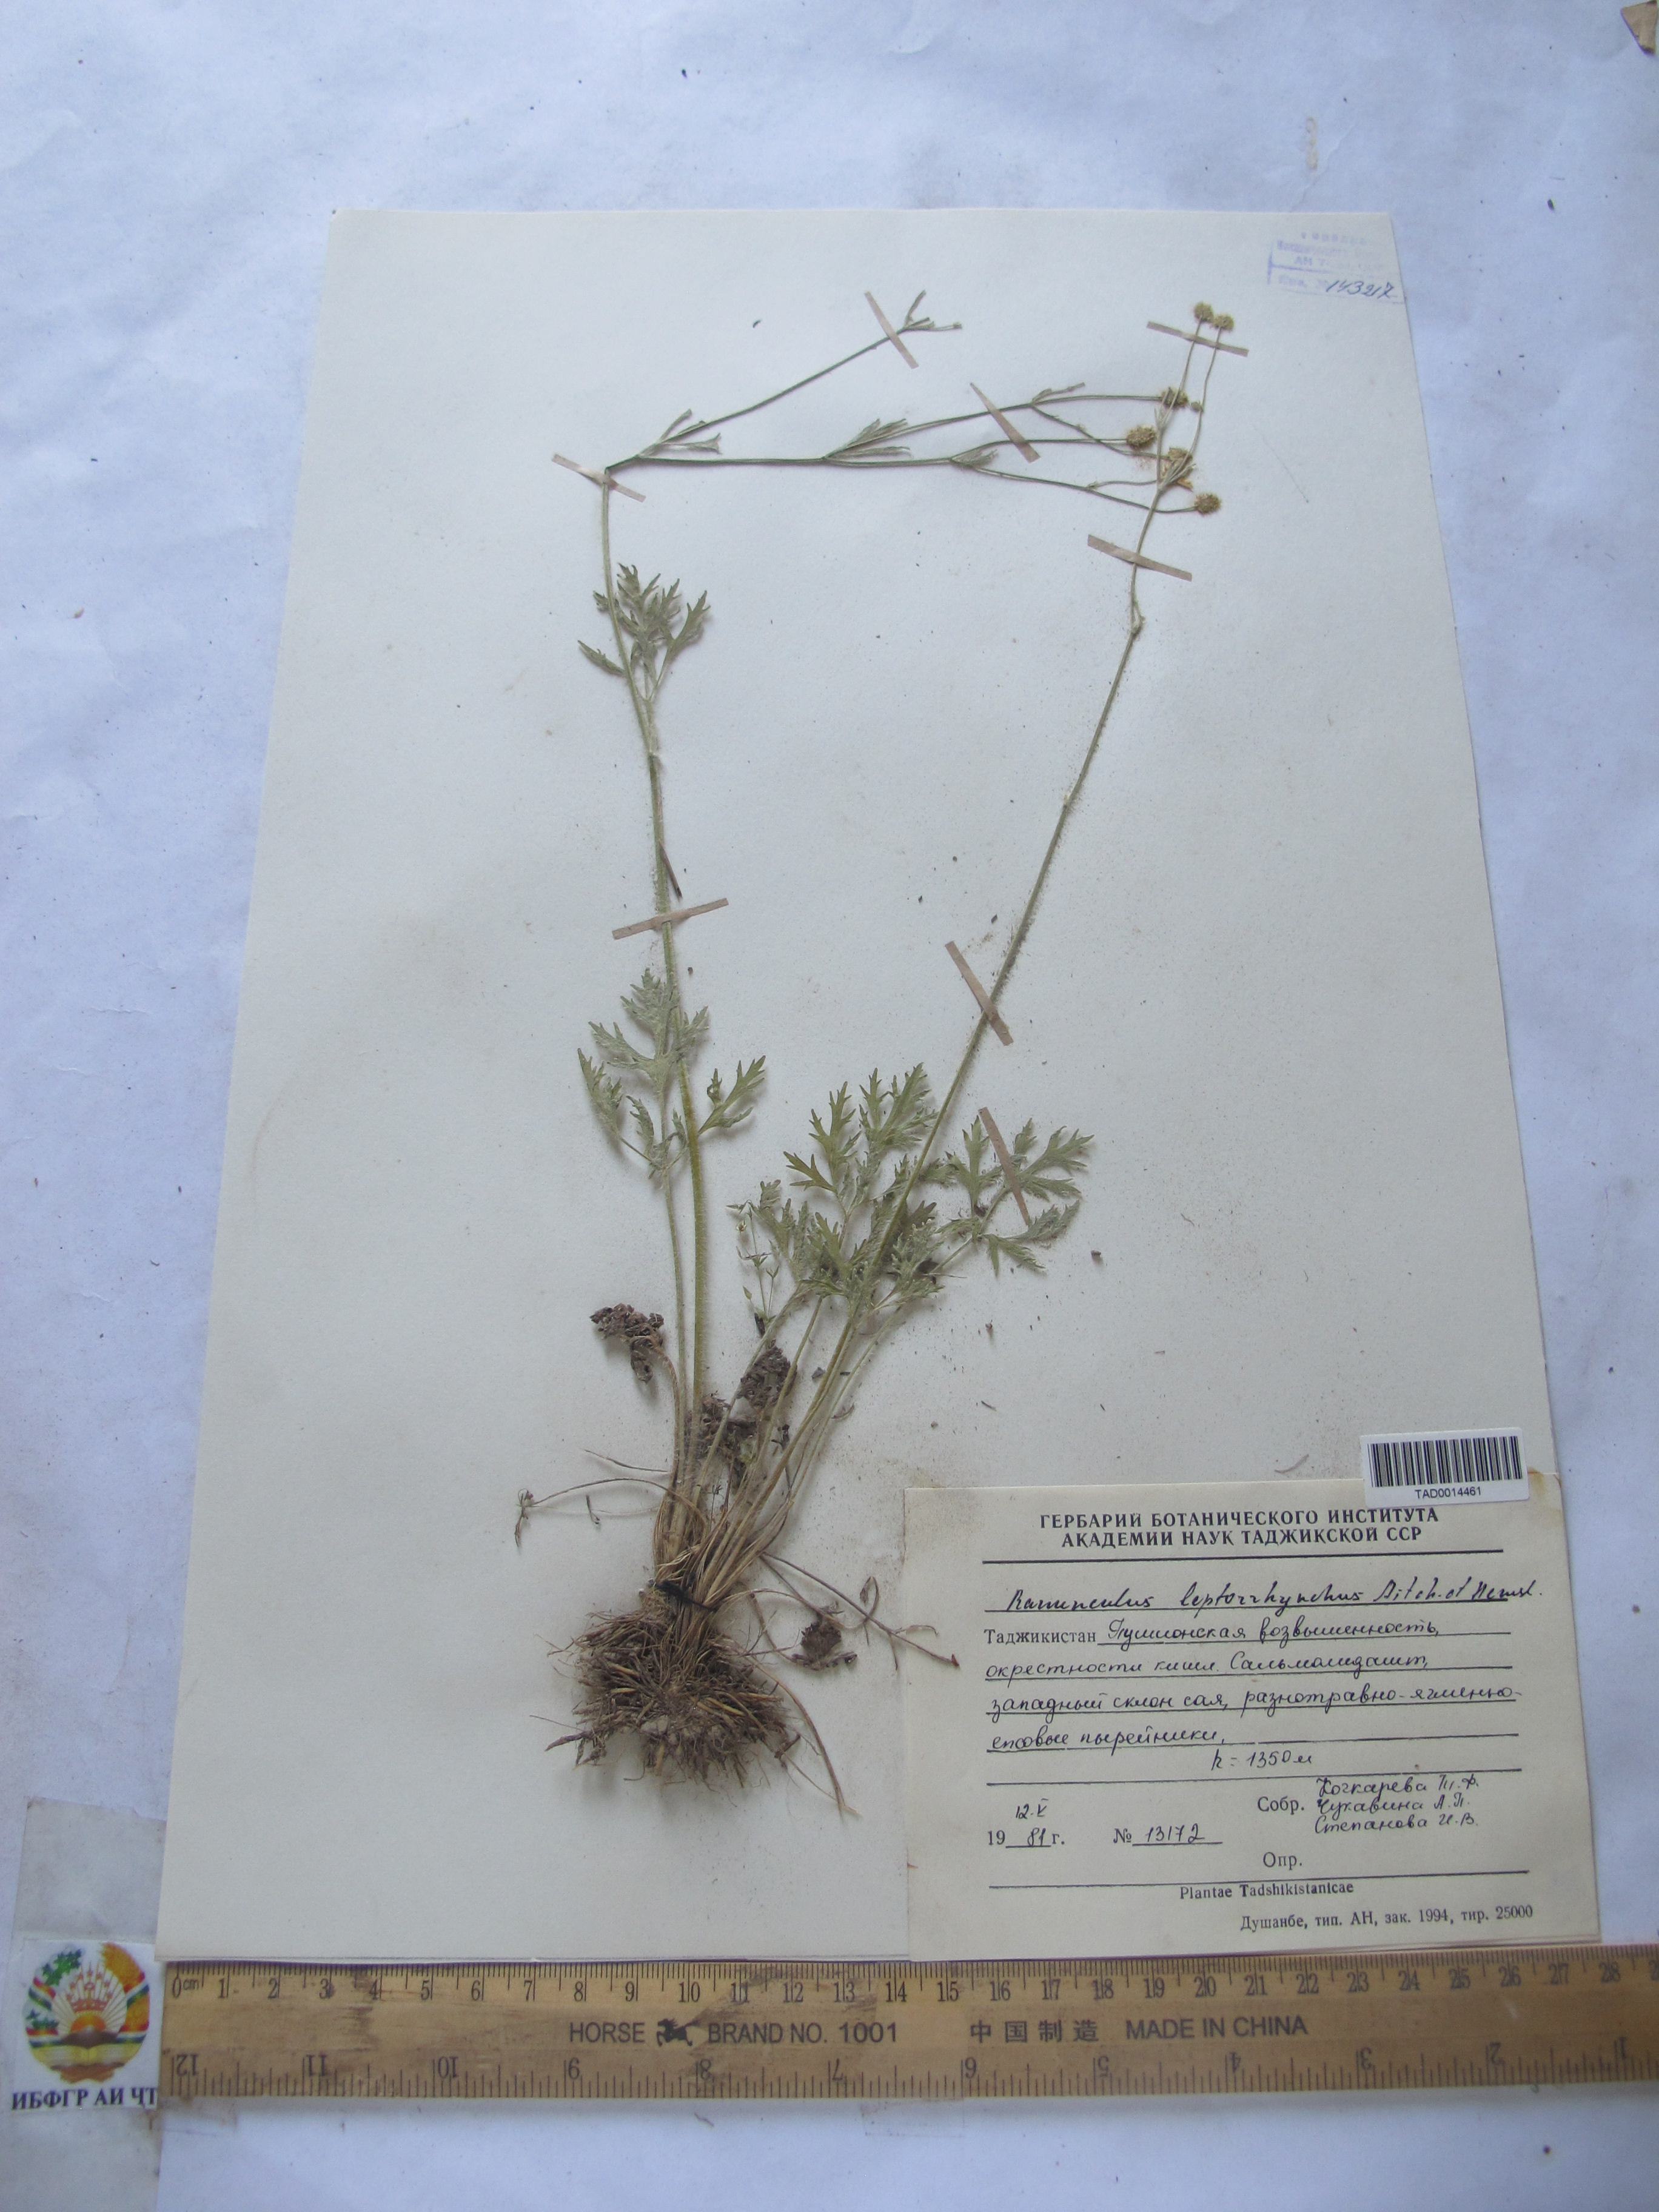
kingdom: Plantae
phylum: Tracheophyta
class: Magnoliopsida
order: Ranunculales
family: Ranunculaceae
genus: Ranunculus
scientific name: Ranunculus leptorrhynchus
